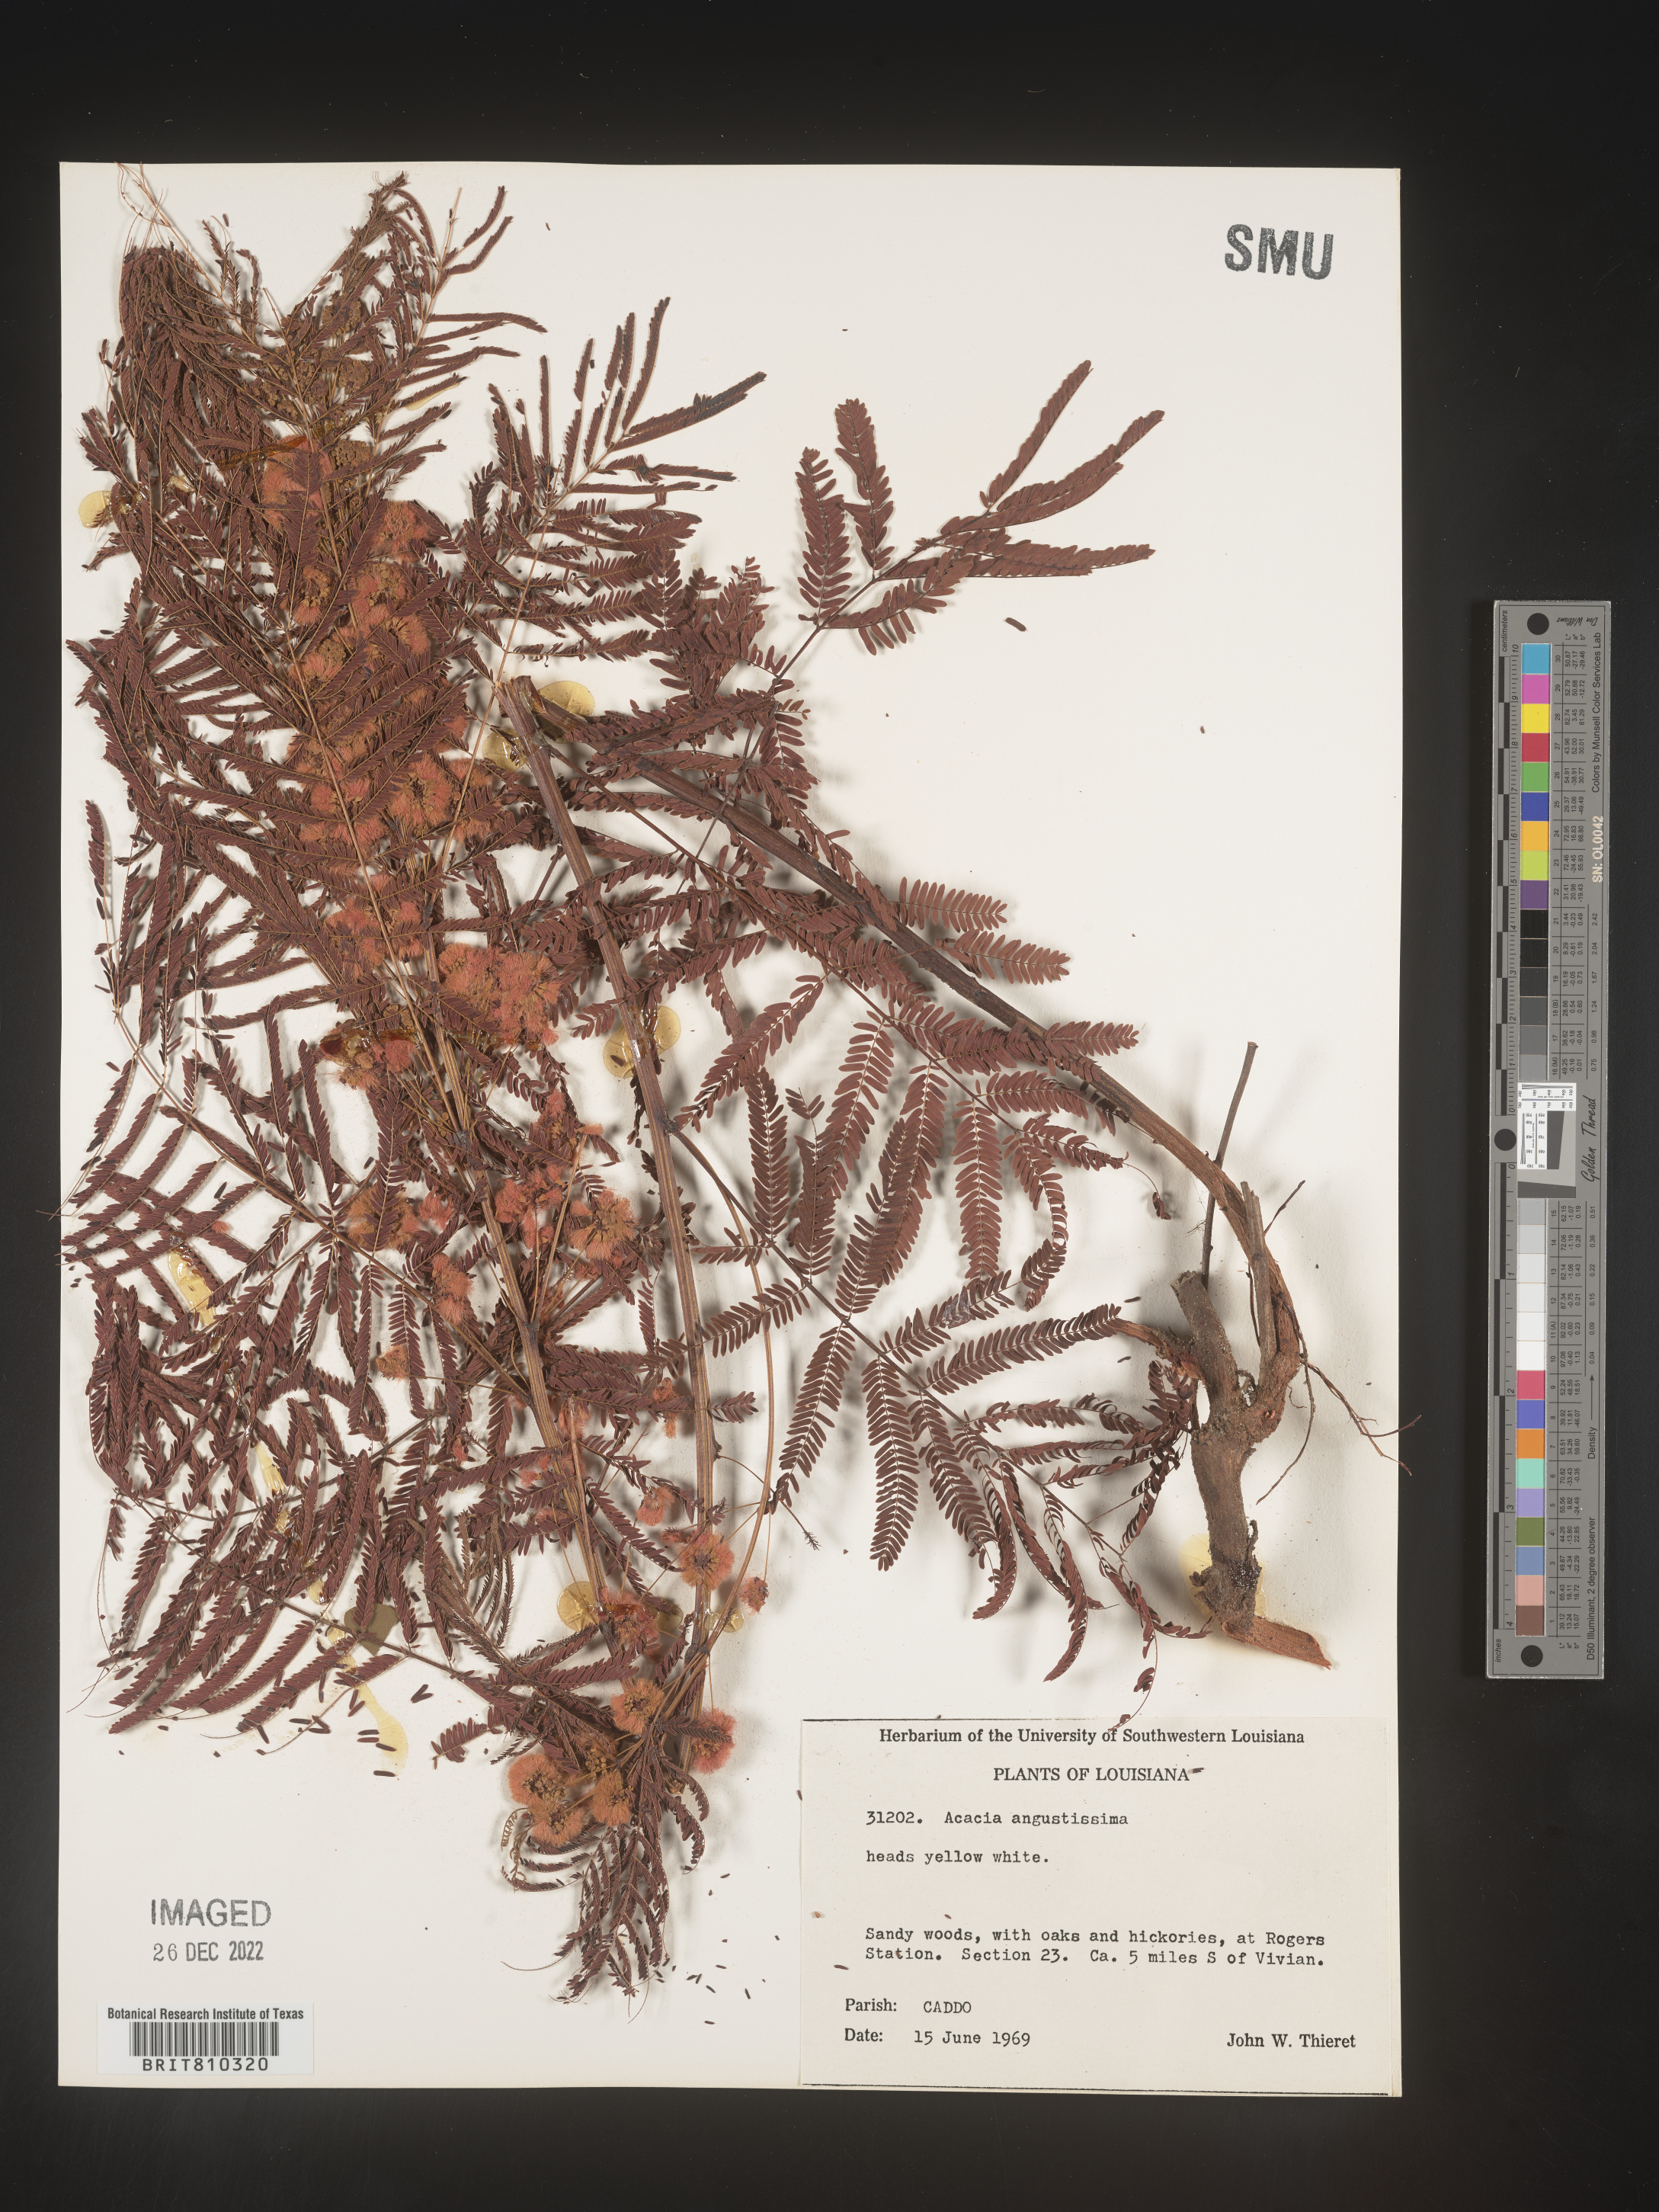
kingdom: Plantae
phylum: Tracheophyta
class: Magnoliopsida
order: Fabales
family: Fabaceae
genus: Acaciella
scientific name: Acaciella angustissima
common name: Prairie acacia
